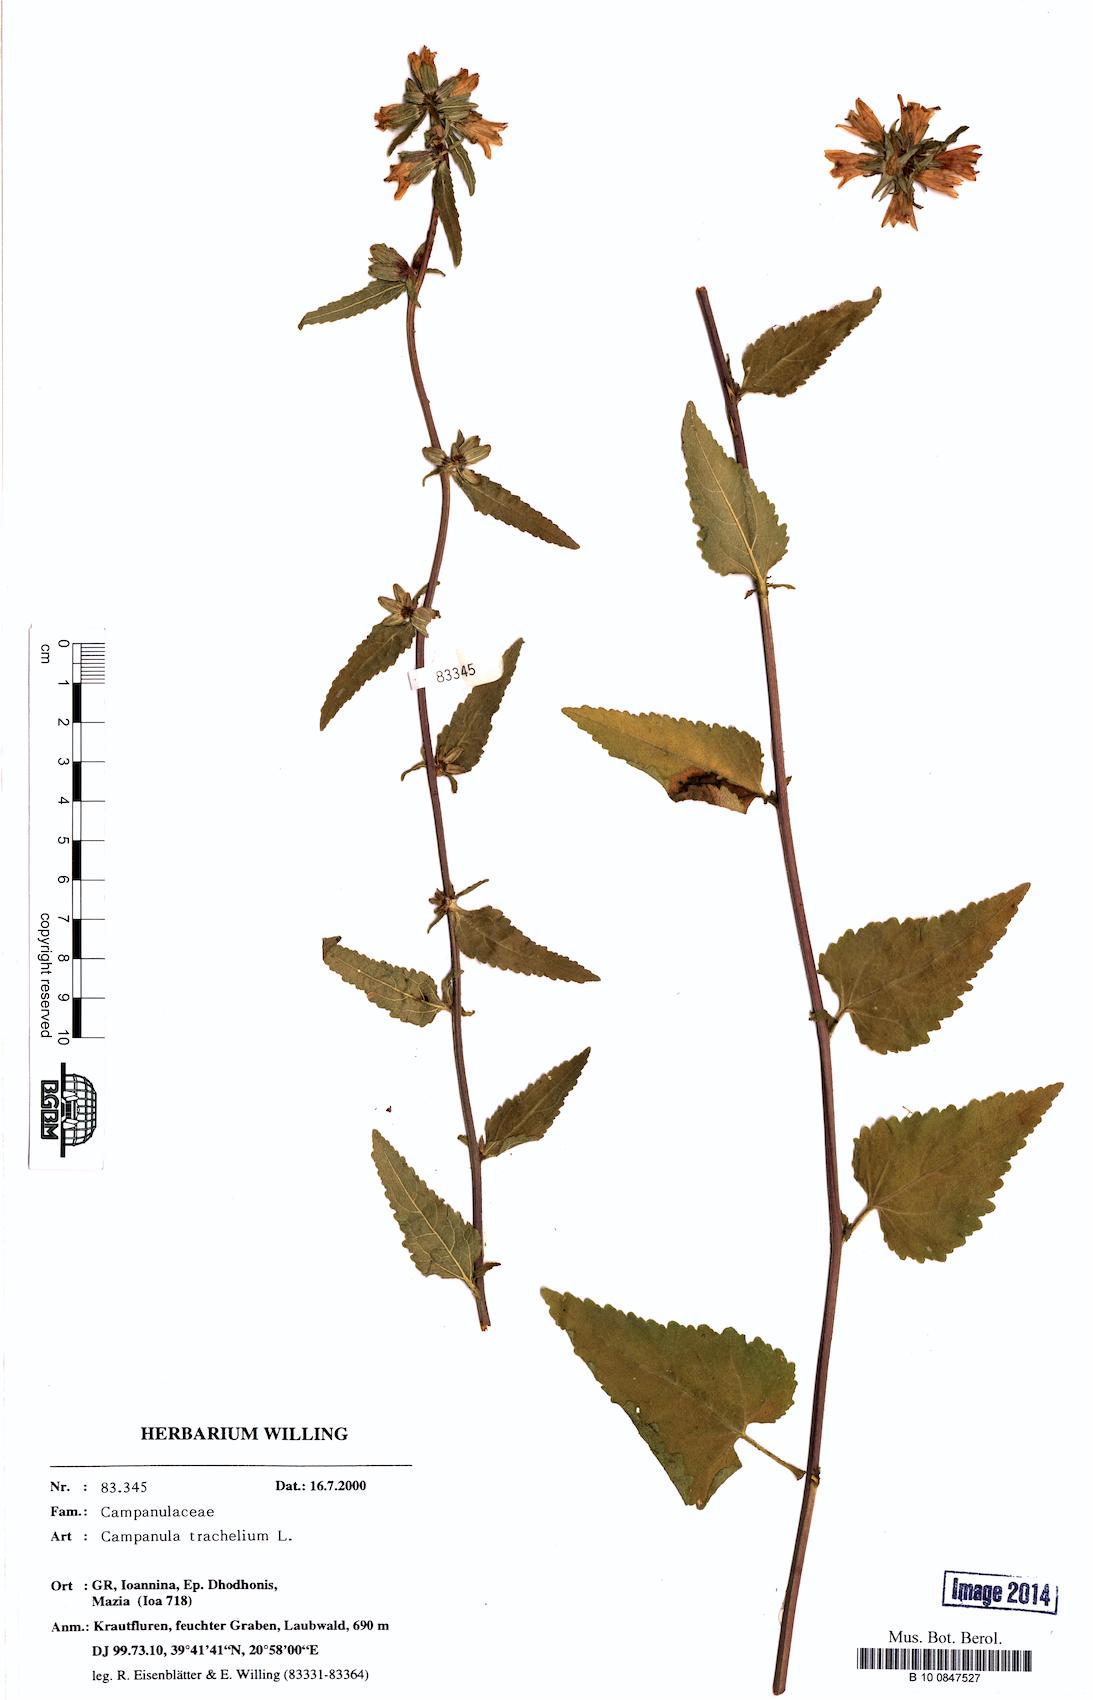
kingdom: Plantae
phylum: Tracheophyta
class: Magnoliopsida
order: Asterales
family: Campanulaceae
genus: Campanula
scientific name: Campanula trachelium
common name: Nettle-leaved bellflower
